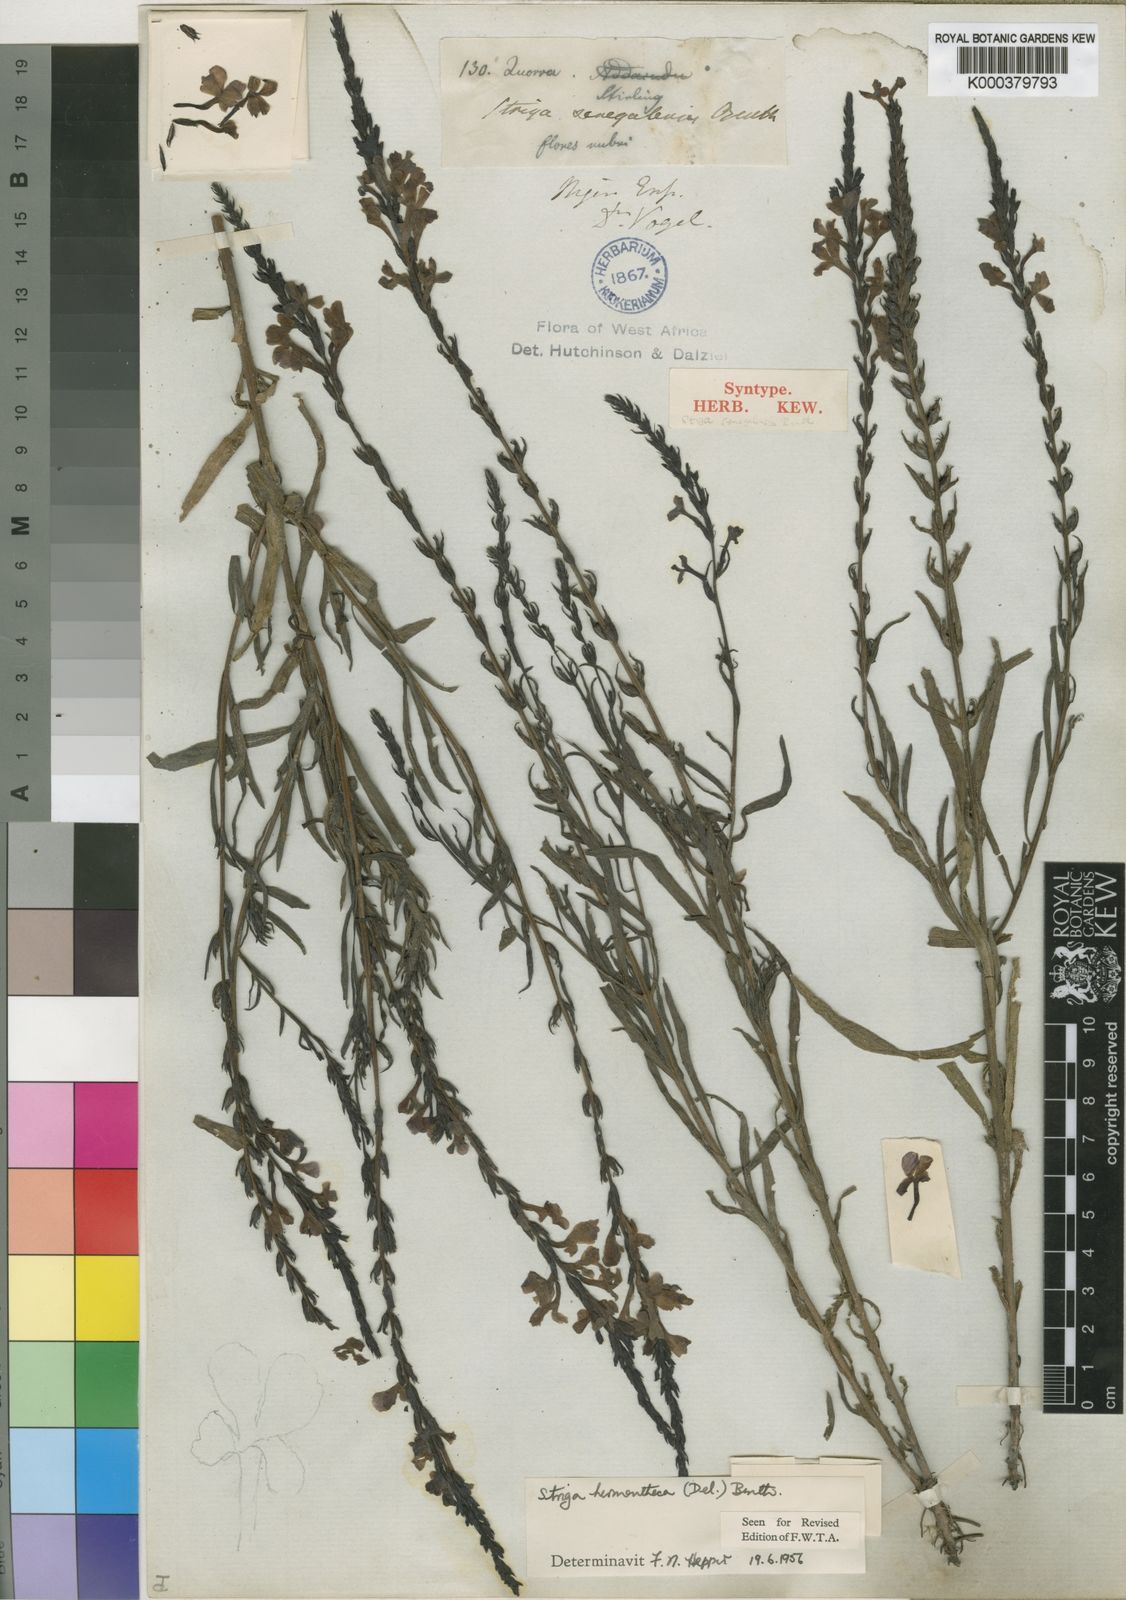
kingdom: Plantae
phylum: Tracheophyta
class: Magnoliopsida
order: Lamiales
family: Orobanchaceae
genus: Striga
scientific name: Striga hermonthica
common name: Purple witchweed
